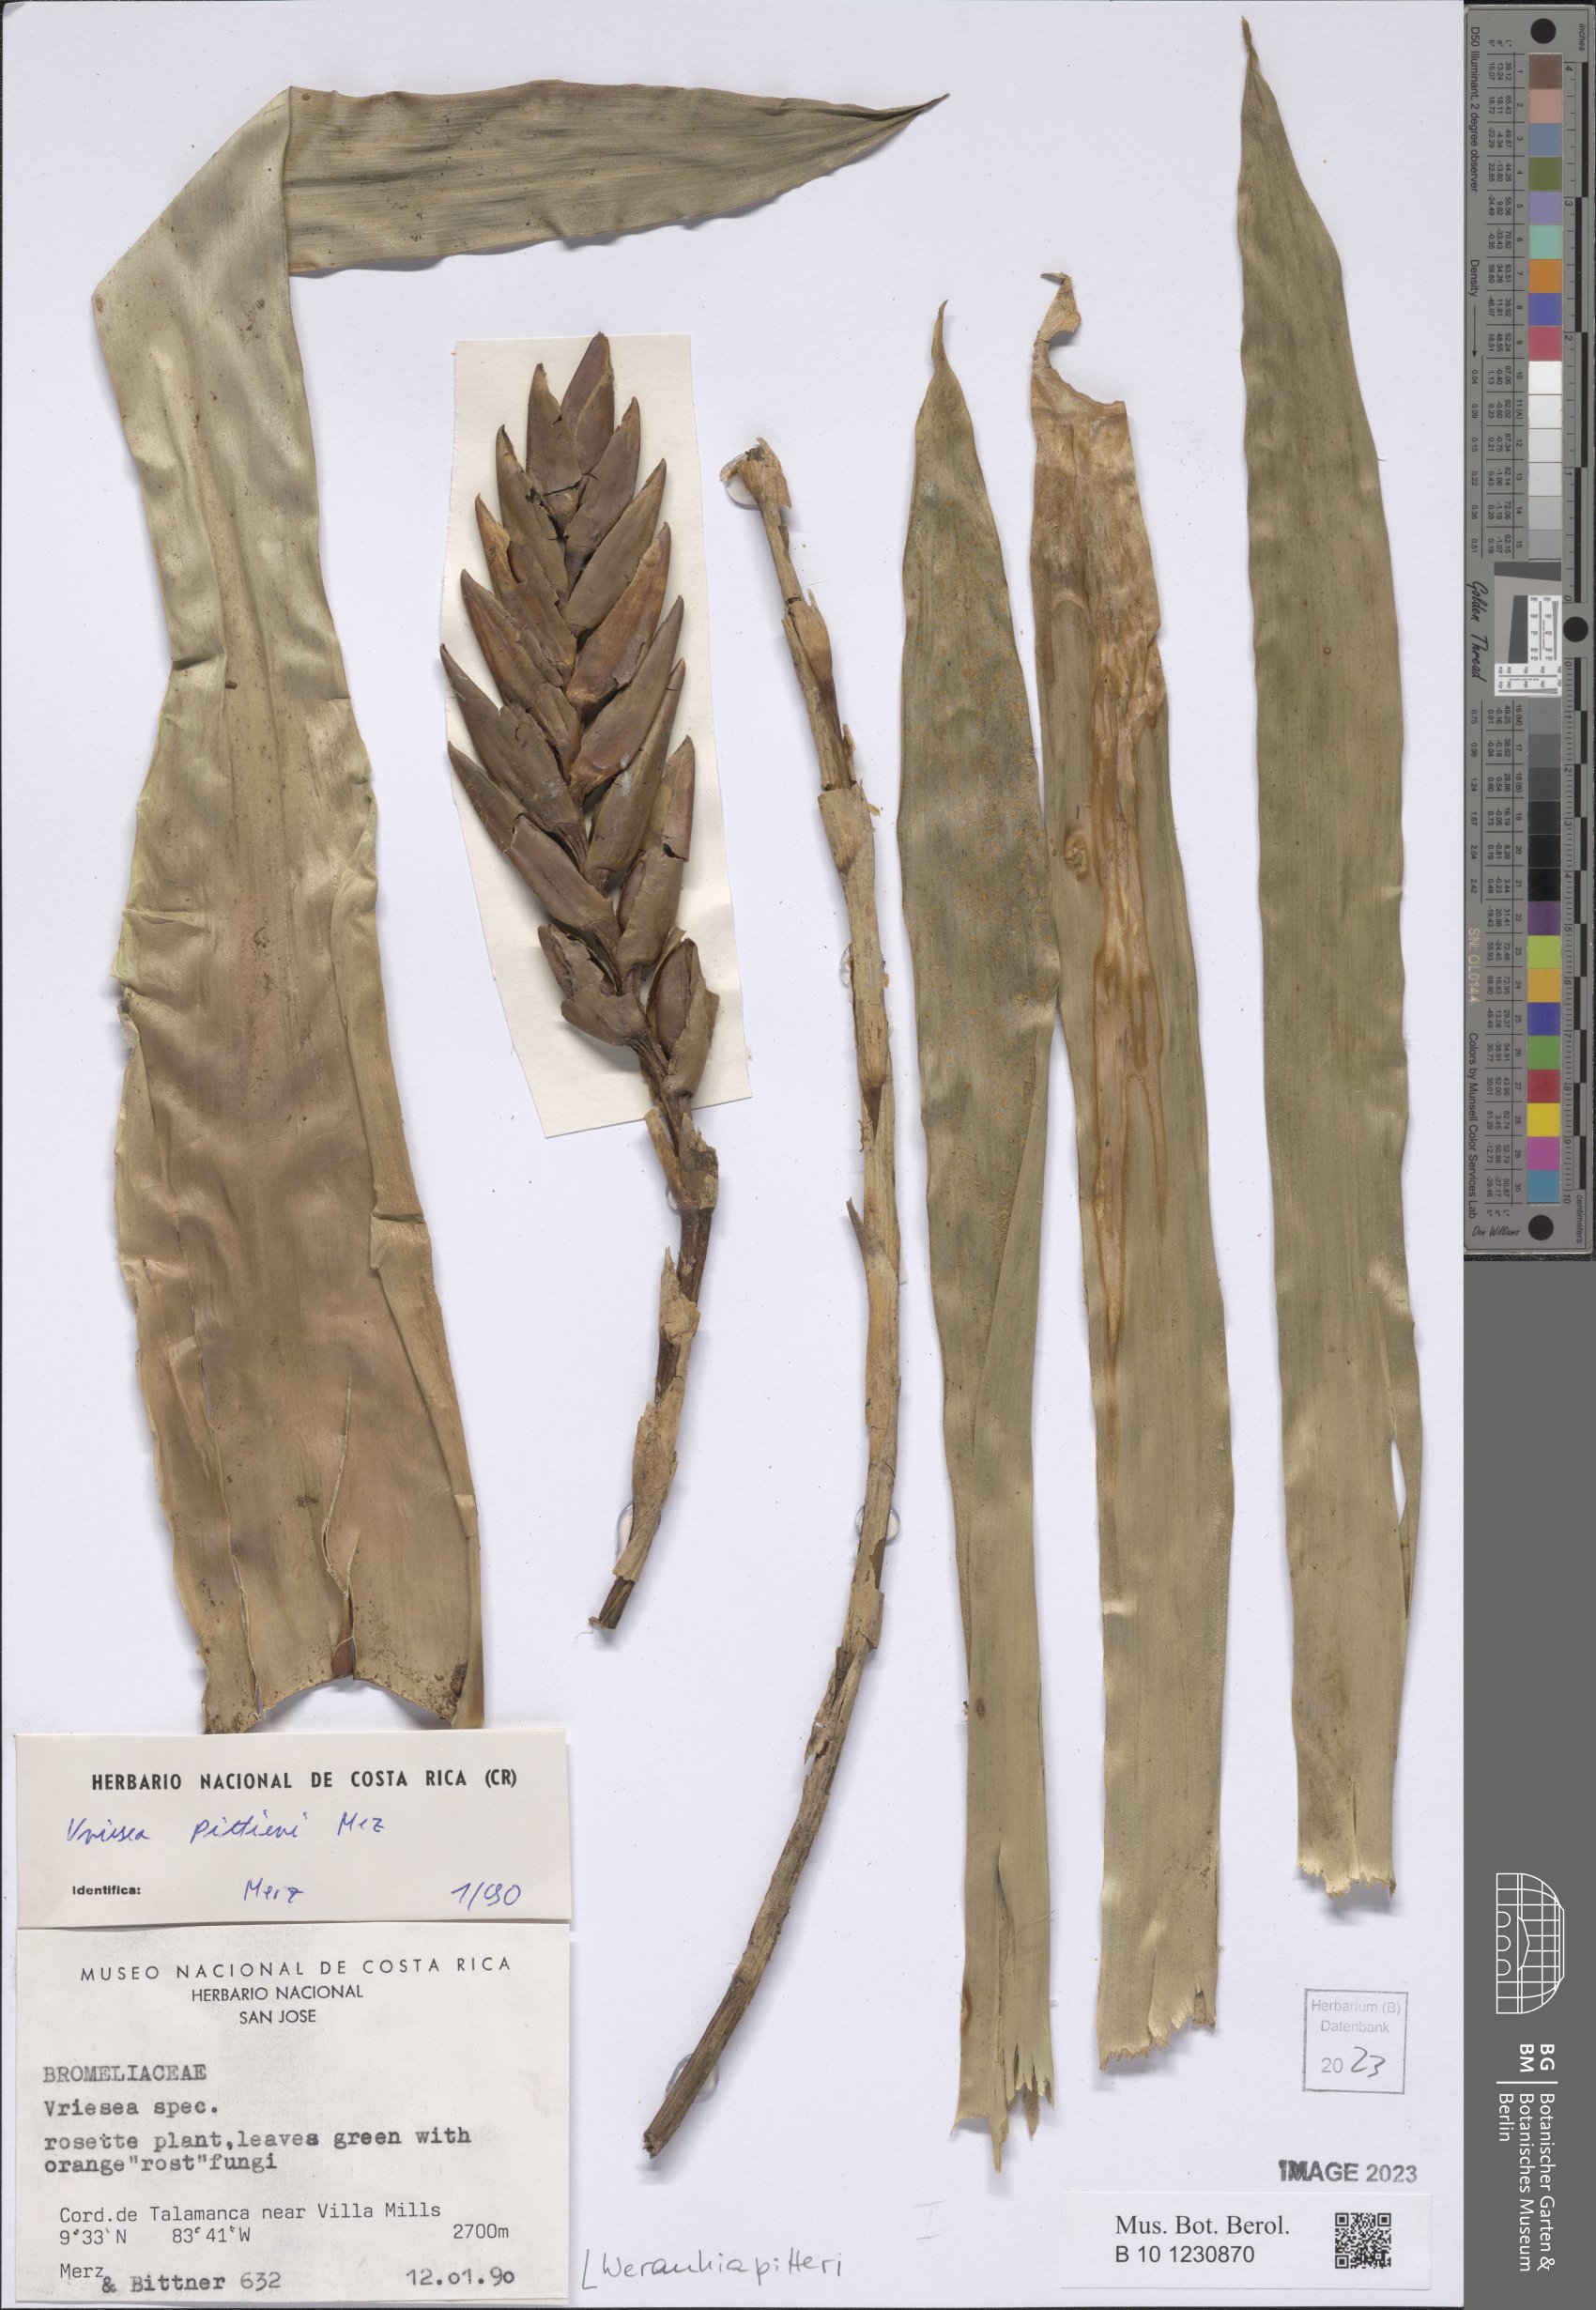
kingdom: Plantae
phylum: Tracheophyta
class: Liliopsida
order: Poales
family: Bromeliaceae
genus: Werauhia
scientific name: Werauhia pittieri
